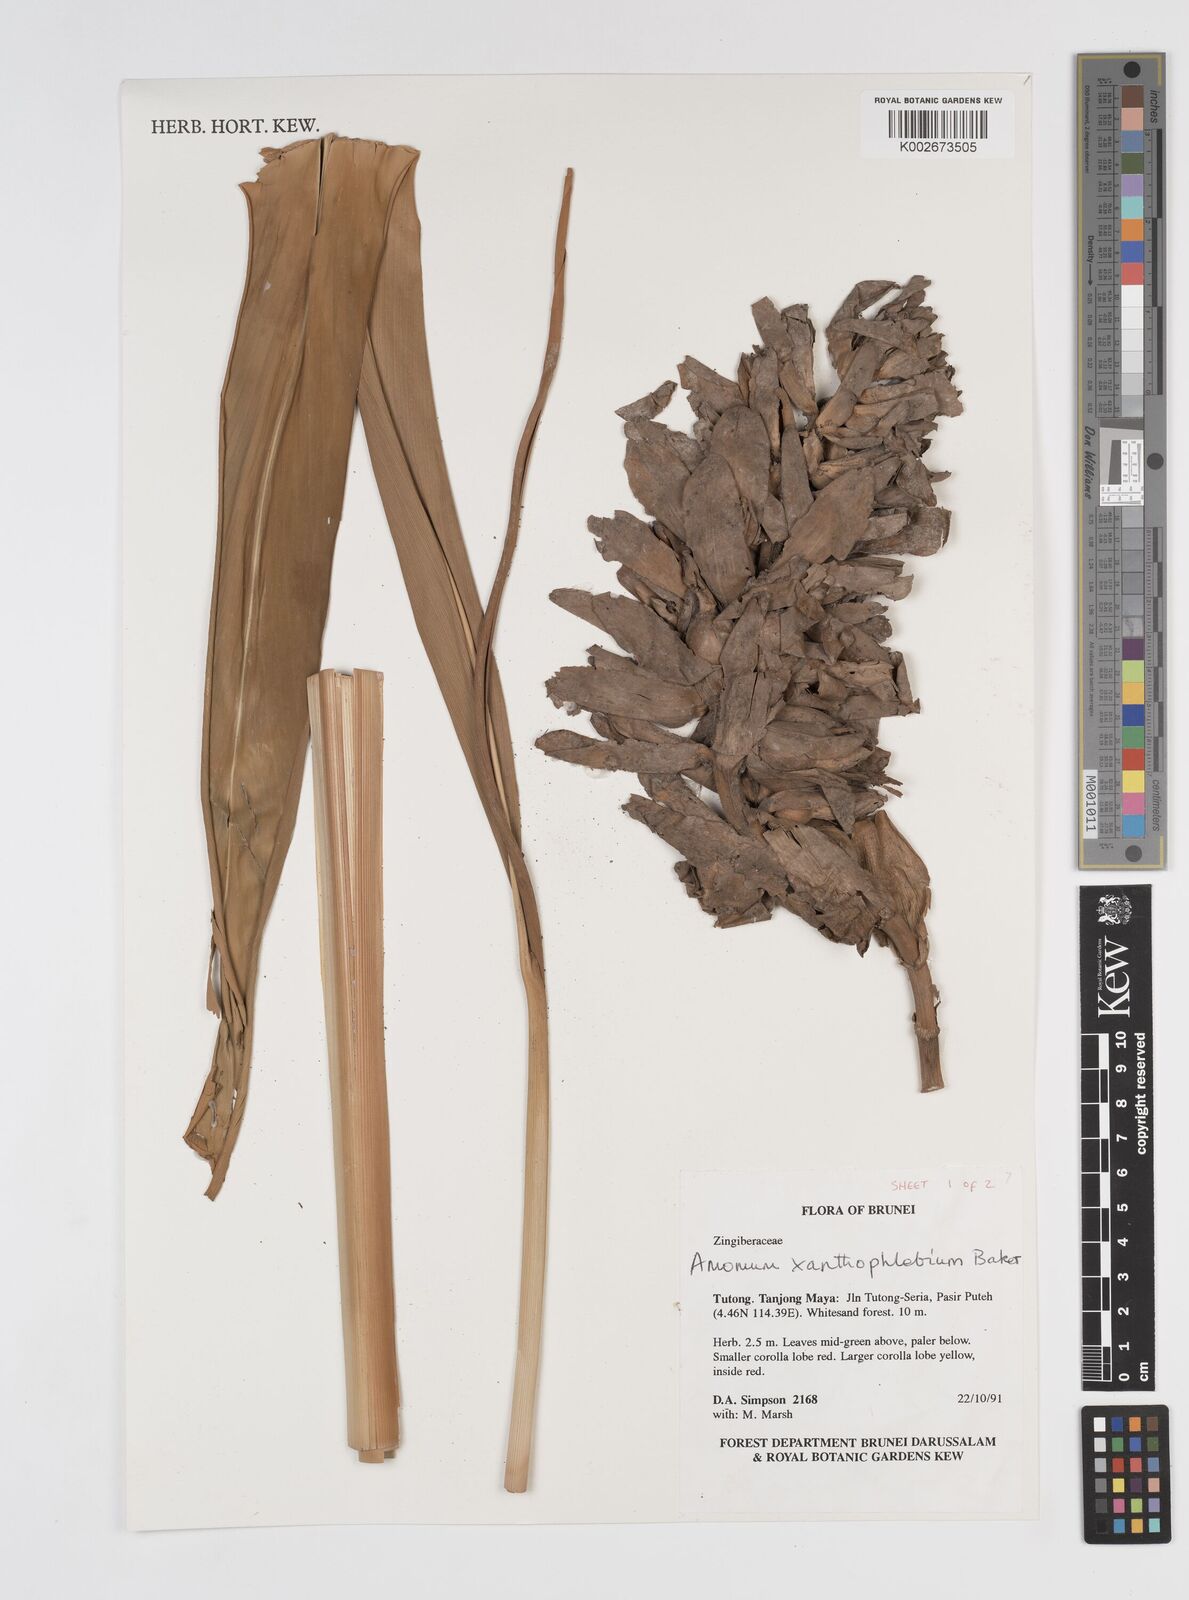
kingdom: Plantae
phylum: Tracheophyta
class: Liliopsida
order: Zingiberales
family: Zingiberaceae
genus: Conamomum
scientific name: Conamomum xanthophlebium
